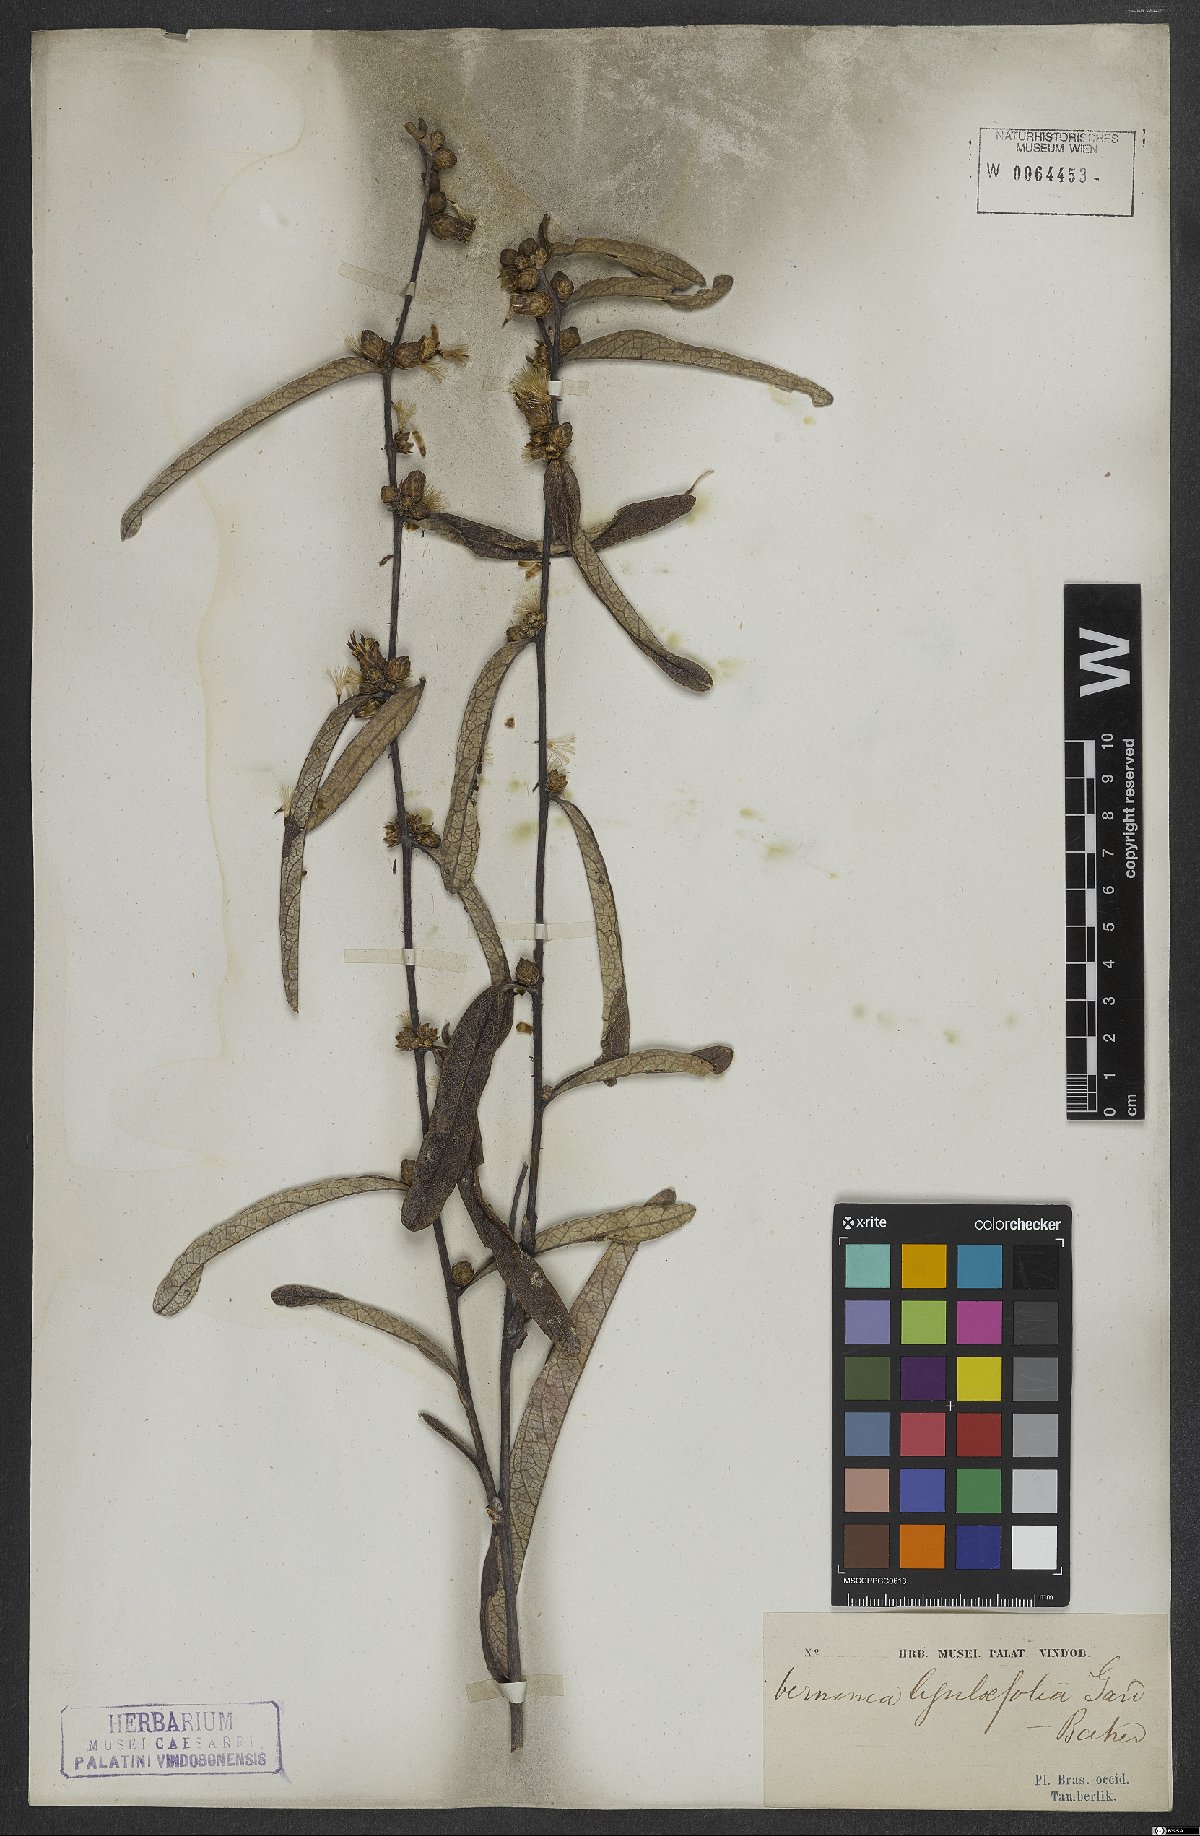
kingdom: Plantae
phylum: Tracheophyta
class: Magnoliopsida
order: Asterales
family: Asteraceae
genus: Lessingianthus
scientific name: Lessingianthus ligulifolius
